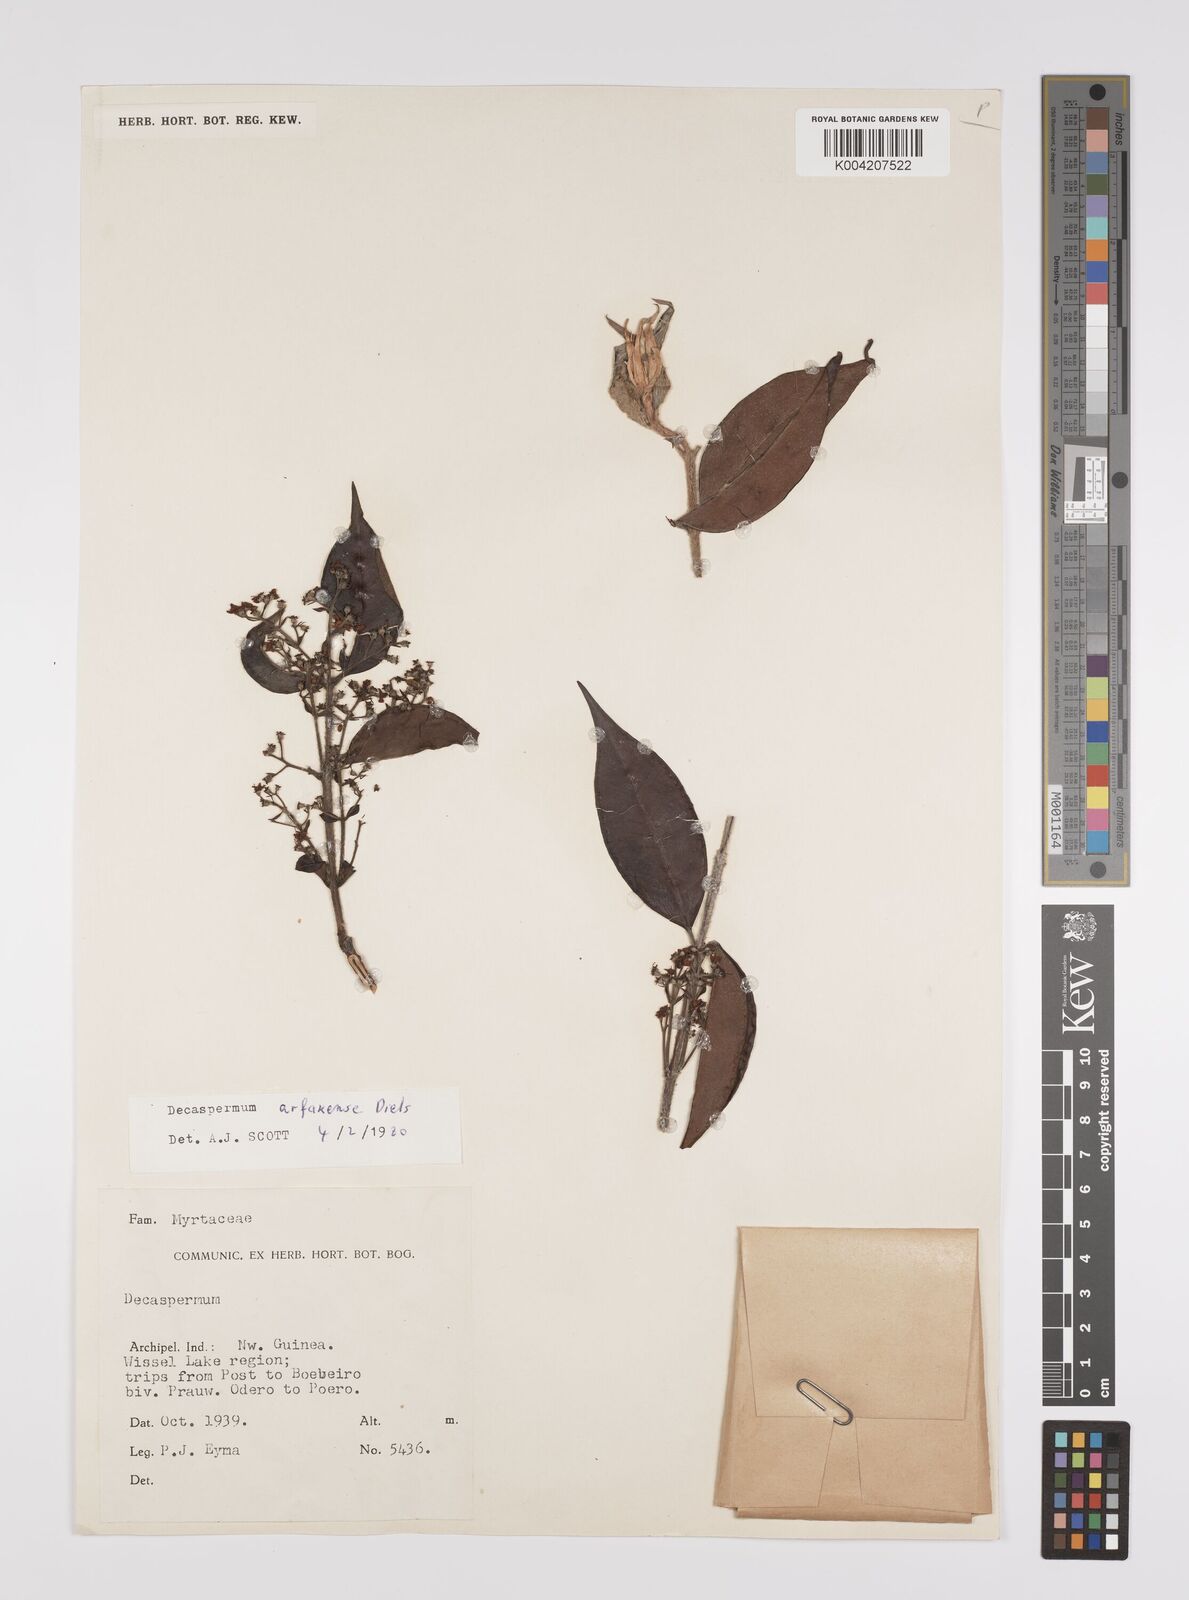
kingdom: Plantae
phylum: Tracheophyta
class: Magnoliopsida
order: Myrtales
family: Myrtaceae
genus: Decaspermum
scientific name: Decaspermum arfakense
